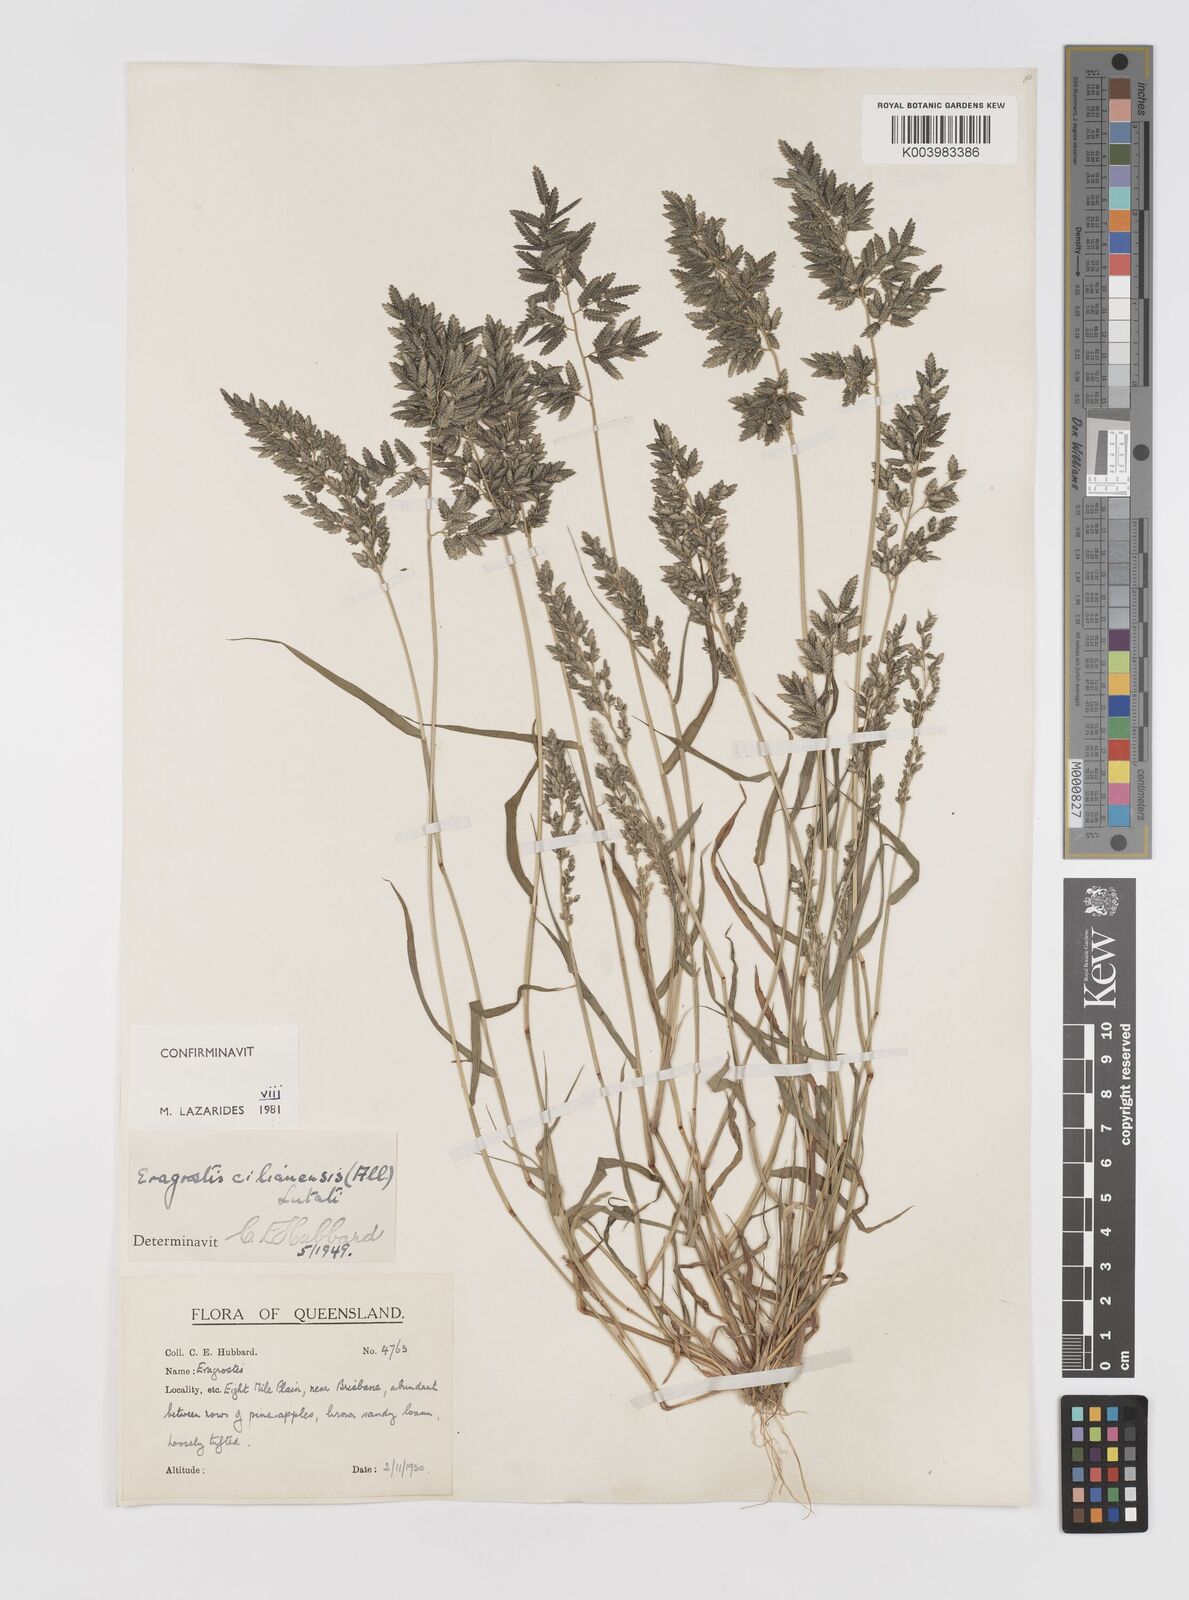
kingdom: Plantae
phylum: Tracheophyta
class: Liliopsida
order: Poales
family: Poaceae
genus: Eragrostis
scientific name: Eragrostis cilianensis
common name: Stinkgrass
